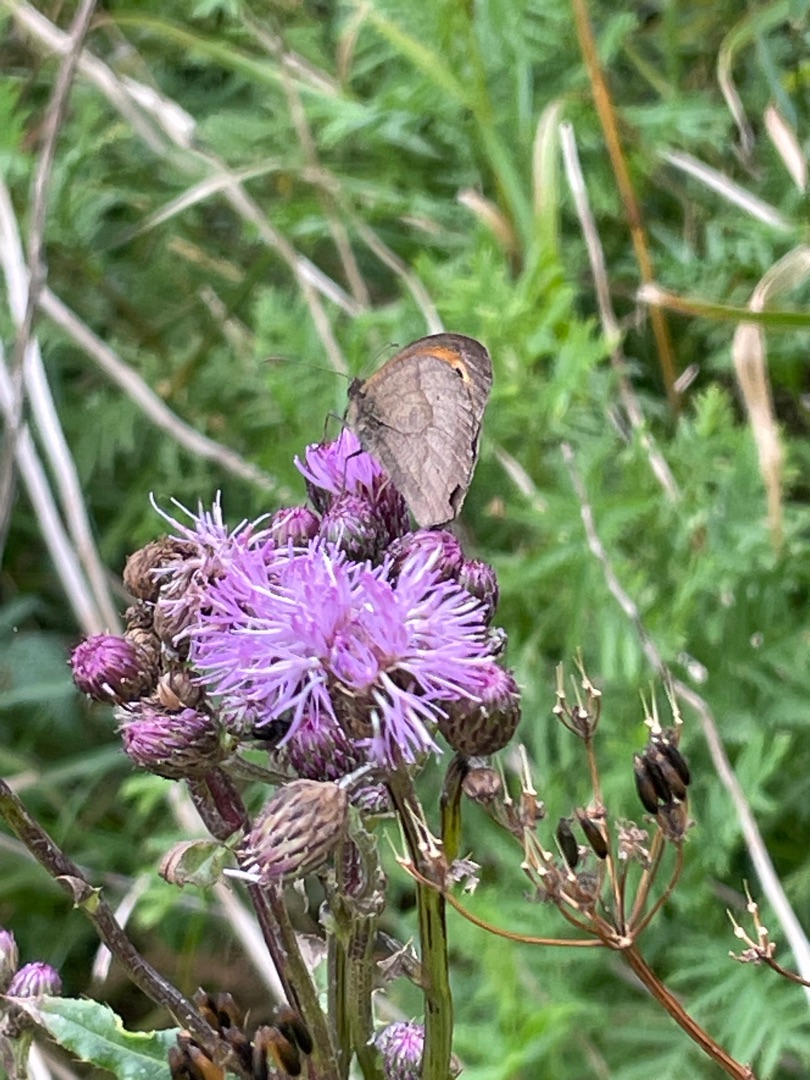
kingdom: Animalia
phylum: Arthropoda
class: Insecta
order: Lepidoptera
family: Nymphalidae
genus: Maniola
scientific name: Maniola jurtina
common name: Græsrandøje
